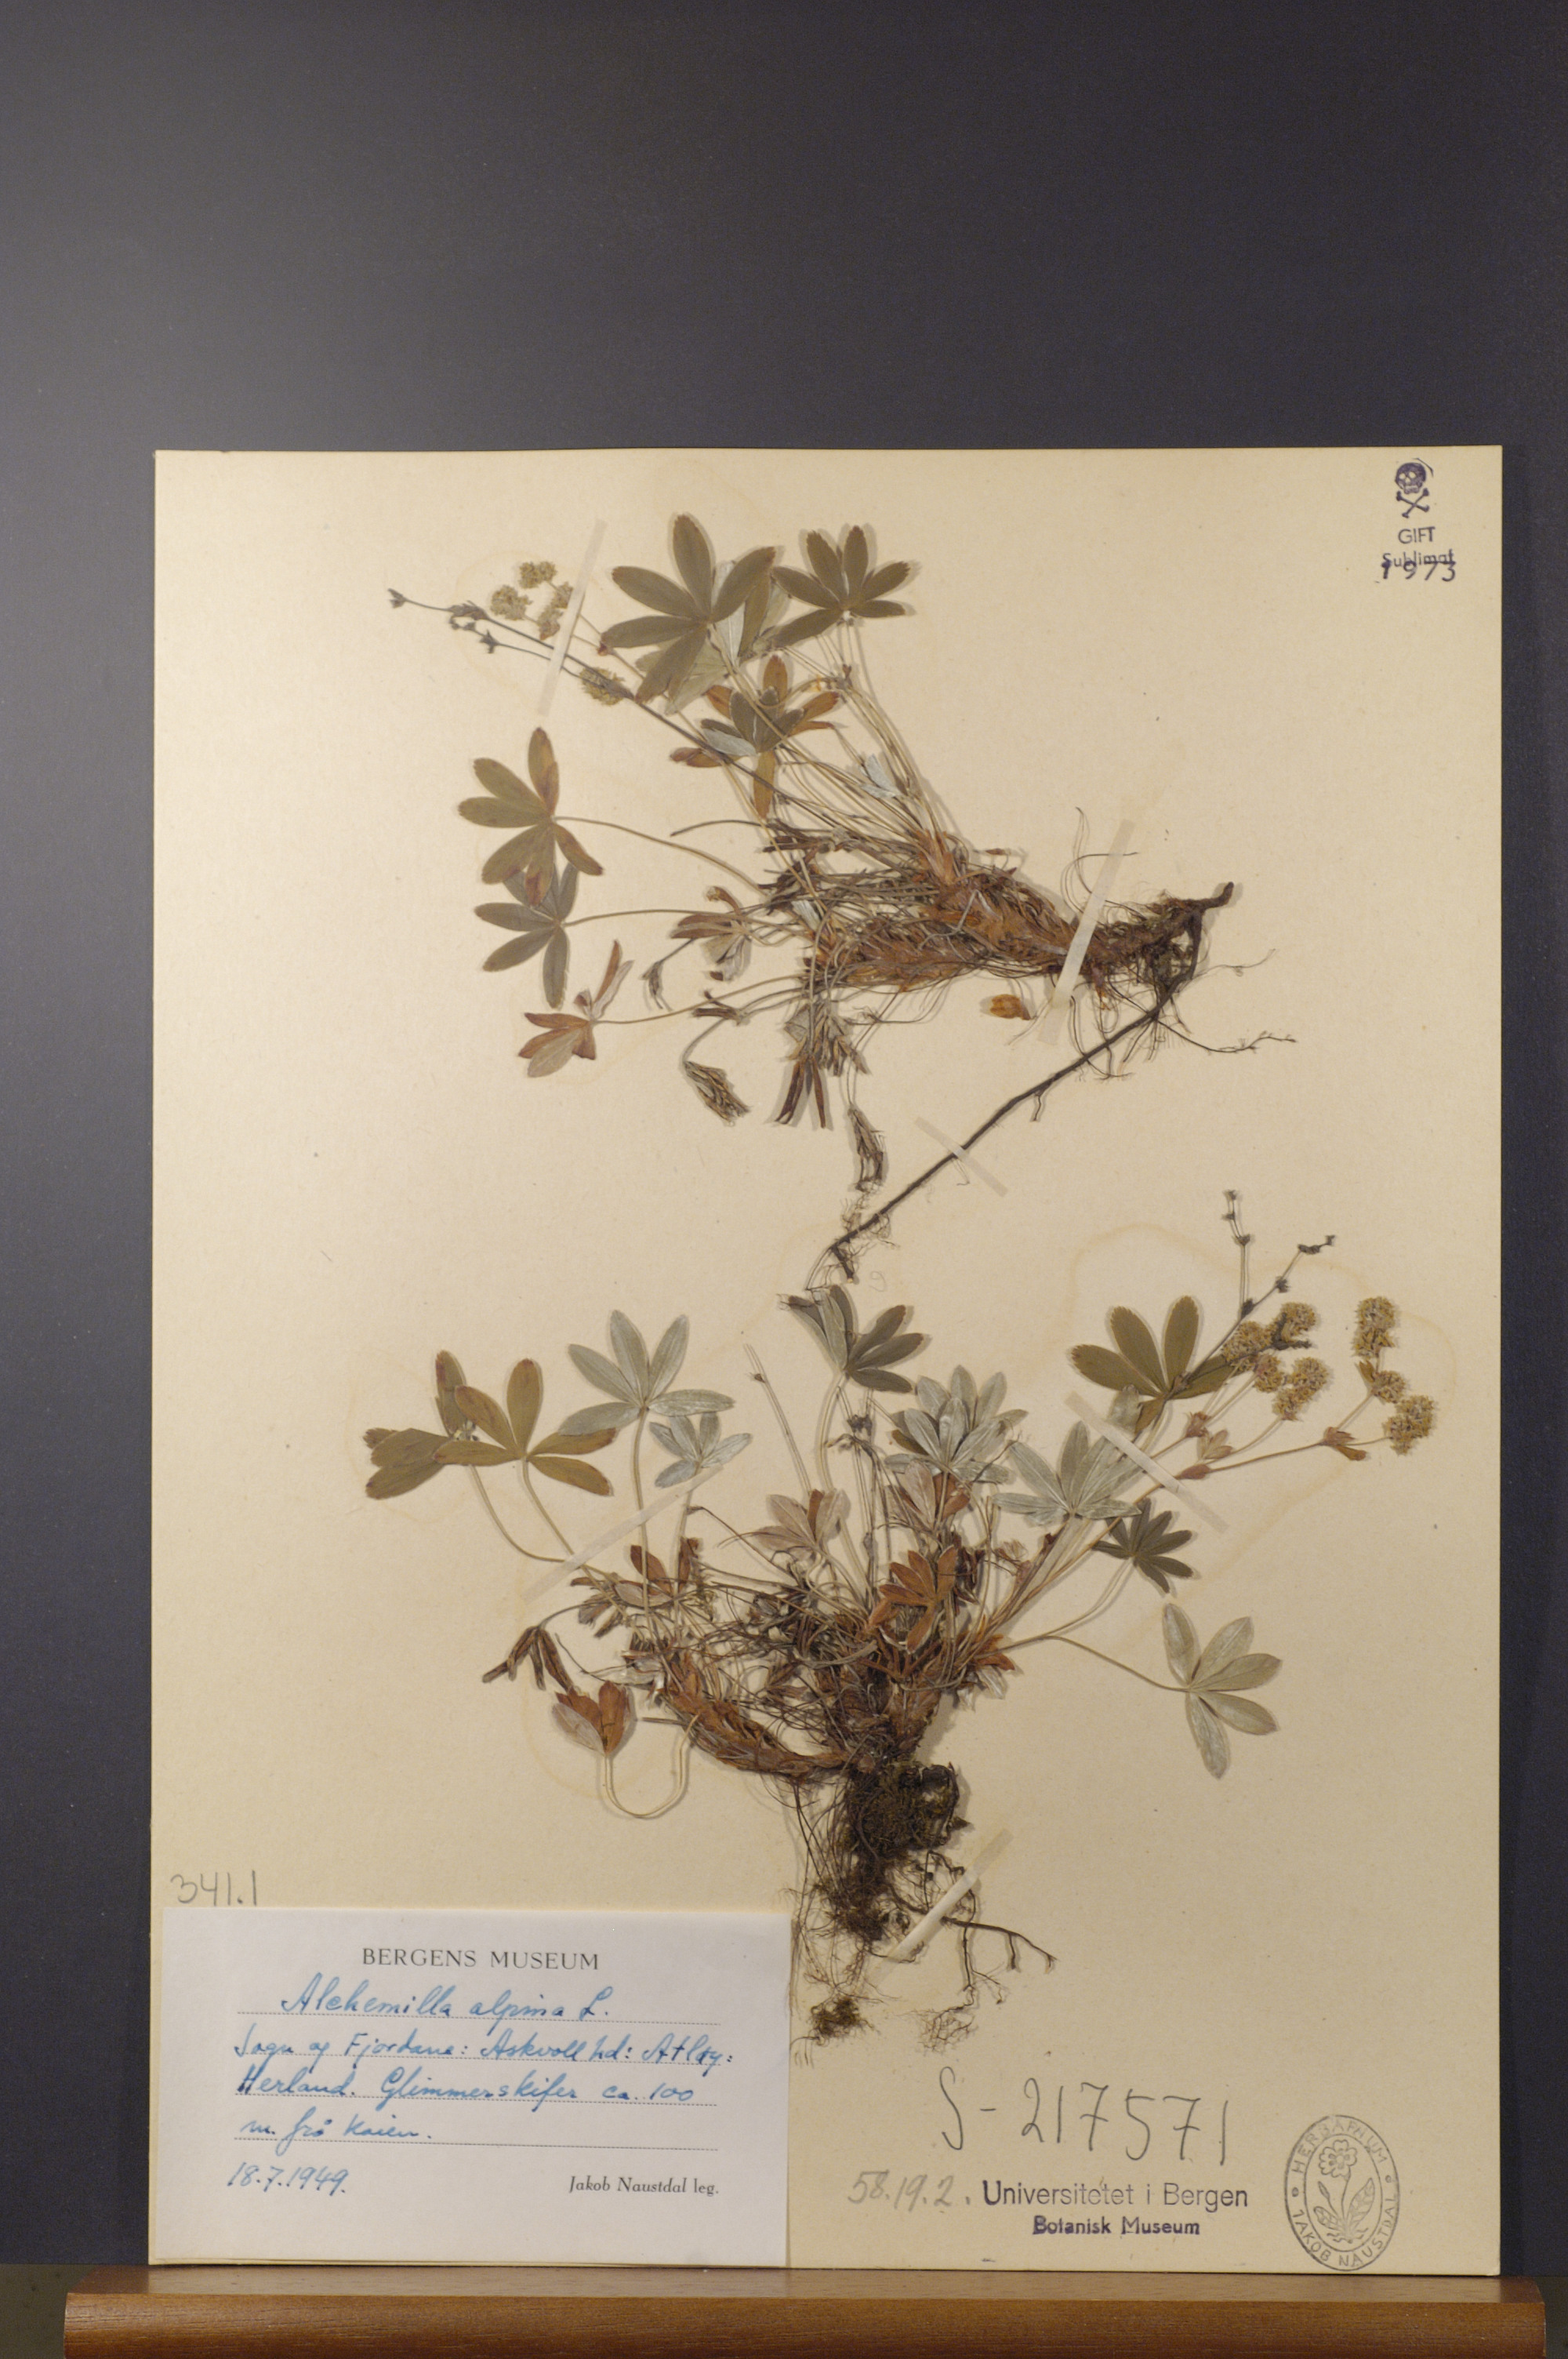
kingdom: Plantae
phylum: Tracheophyta
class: Magnoliopsida
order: Rosales
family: Rosaceae
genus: Alchemilla
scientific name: Alchemilla alpina
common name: Alpine lady's-mantle
